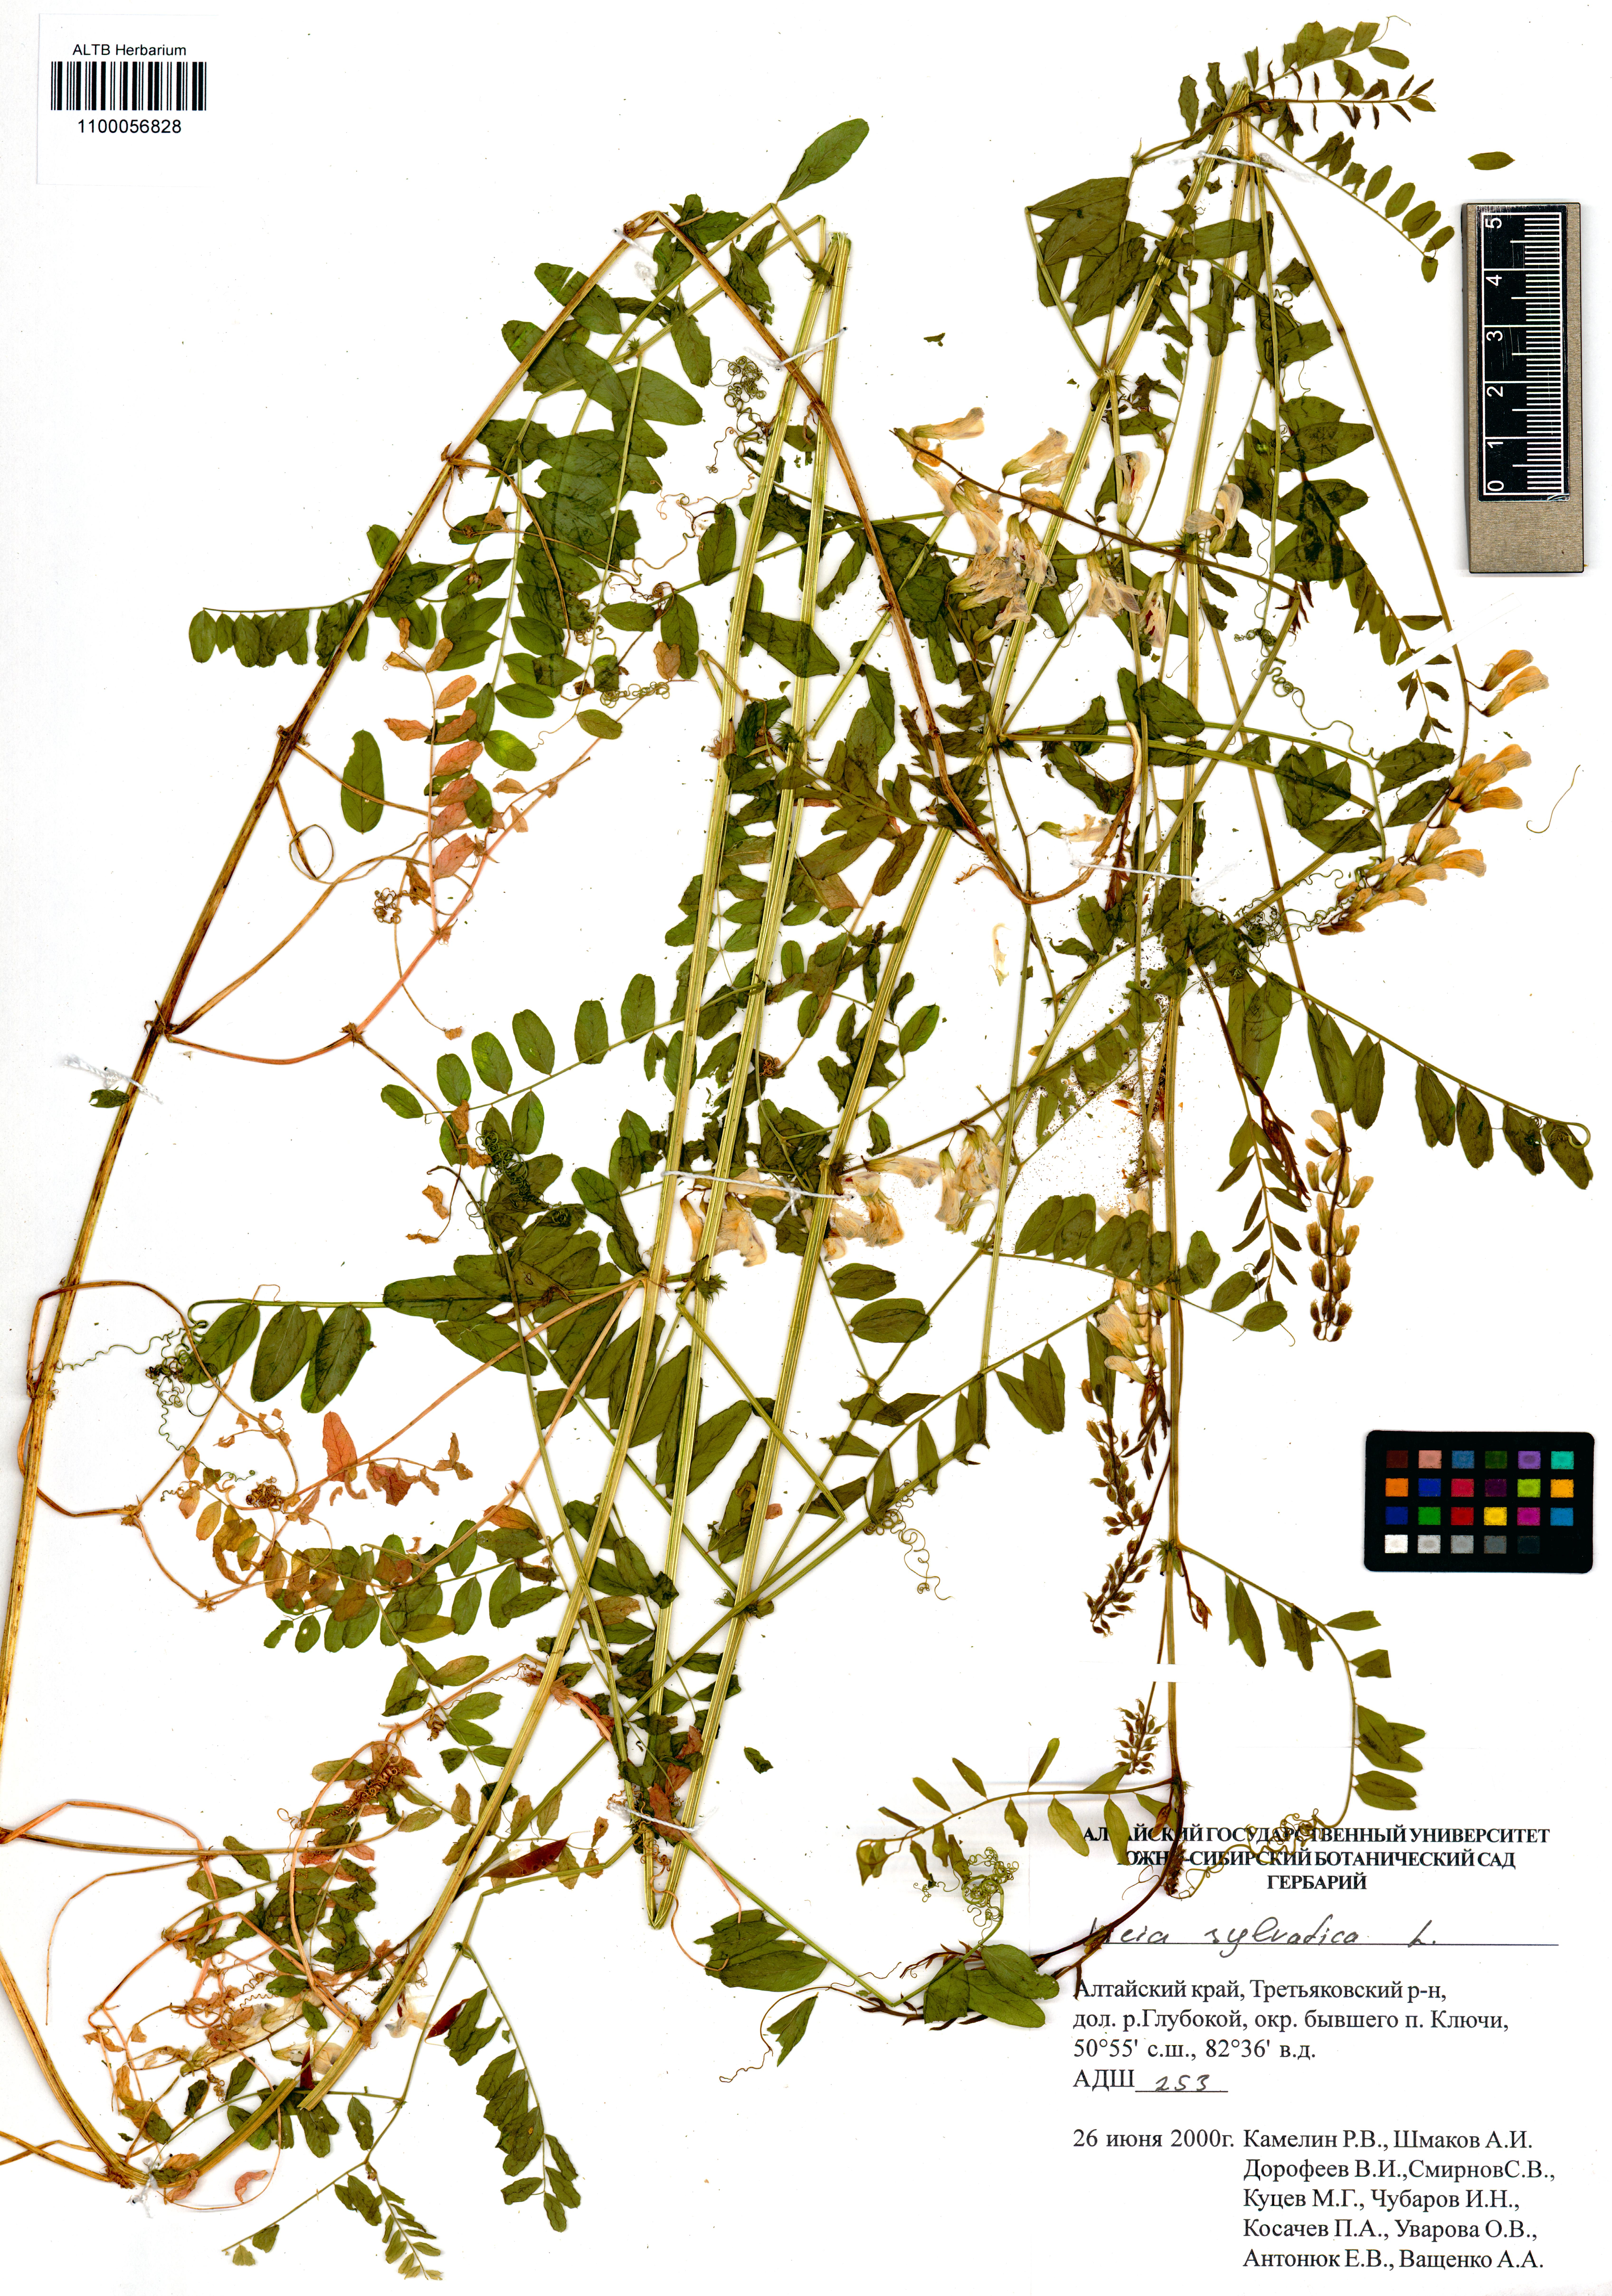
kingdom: Plantae
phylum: Tracheophyta
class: Magnoliopsida
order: Fabales
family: Fabaceae
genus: Vicia
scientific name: Vicia sylvatica
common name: Wood vetch
